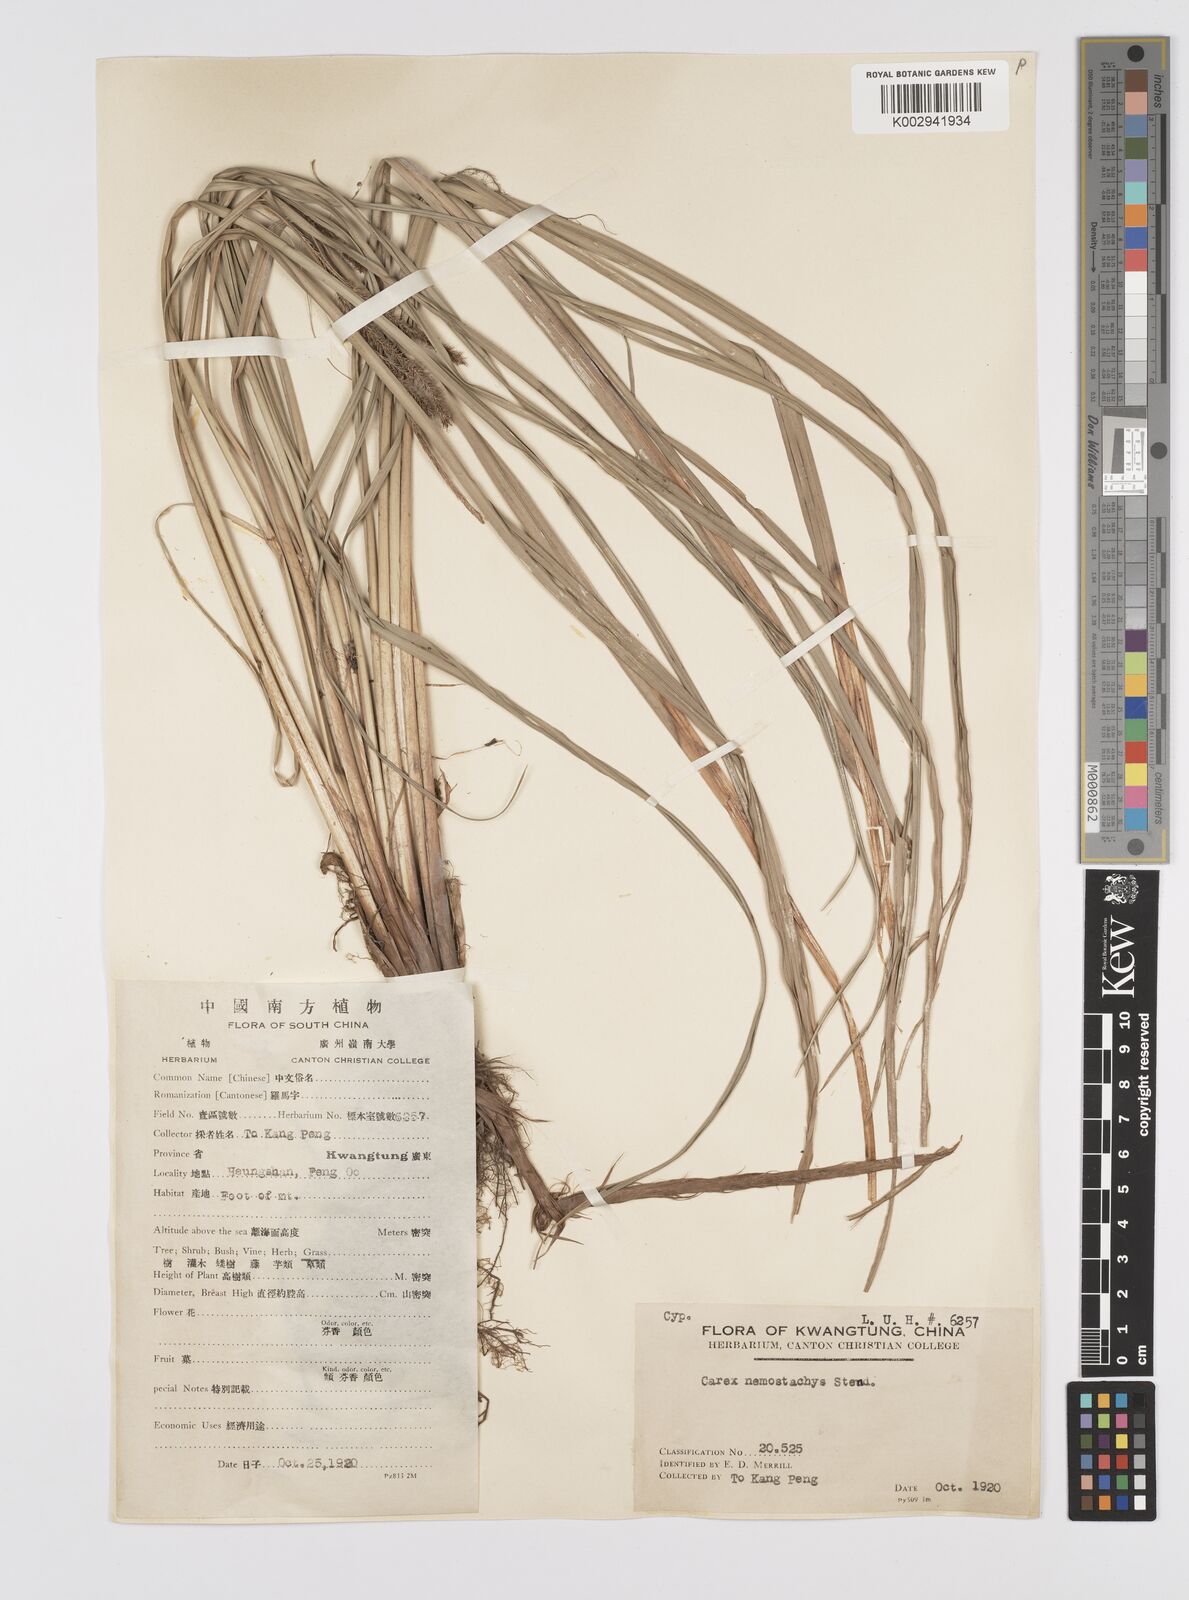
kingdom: Plantae
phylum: Tracheophyta
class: Liliopsida
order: Poales
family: Cyperaceae
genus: Carex
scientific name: Carex tumida
